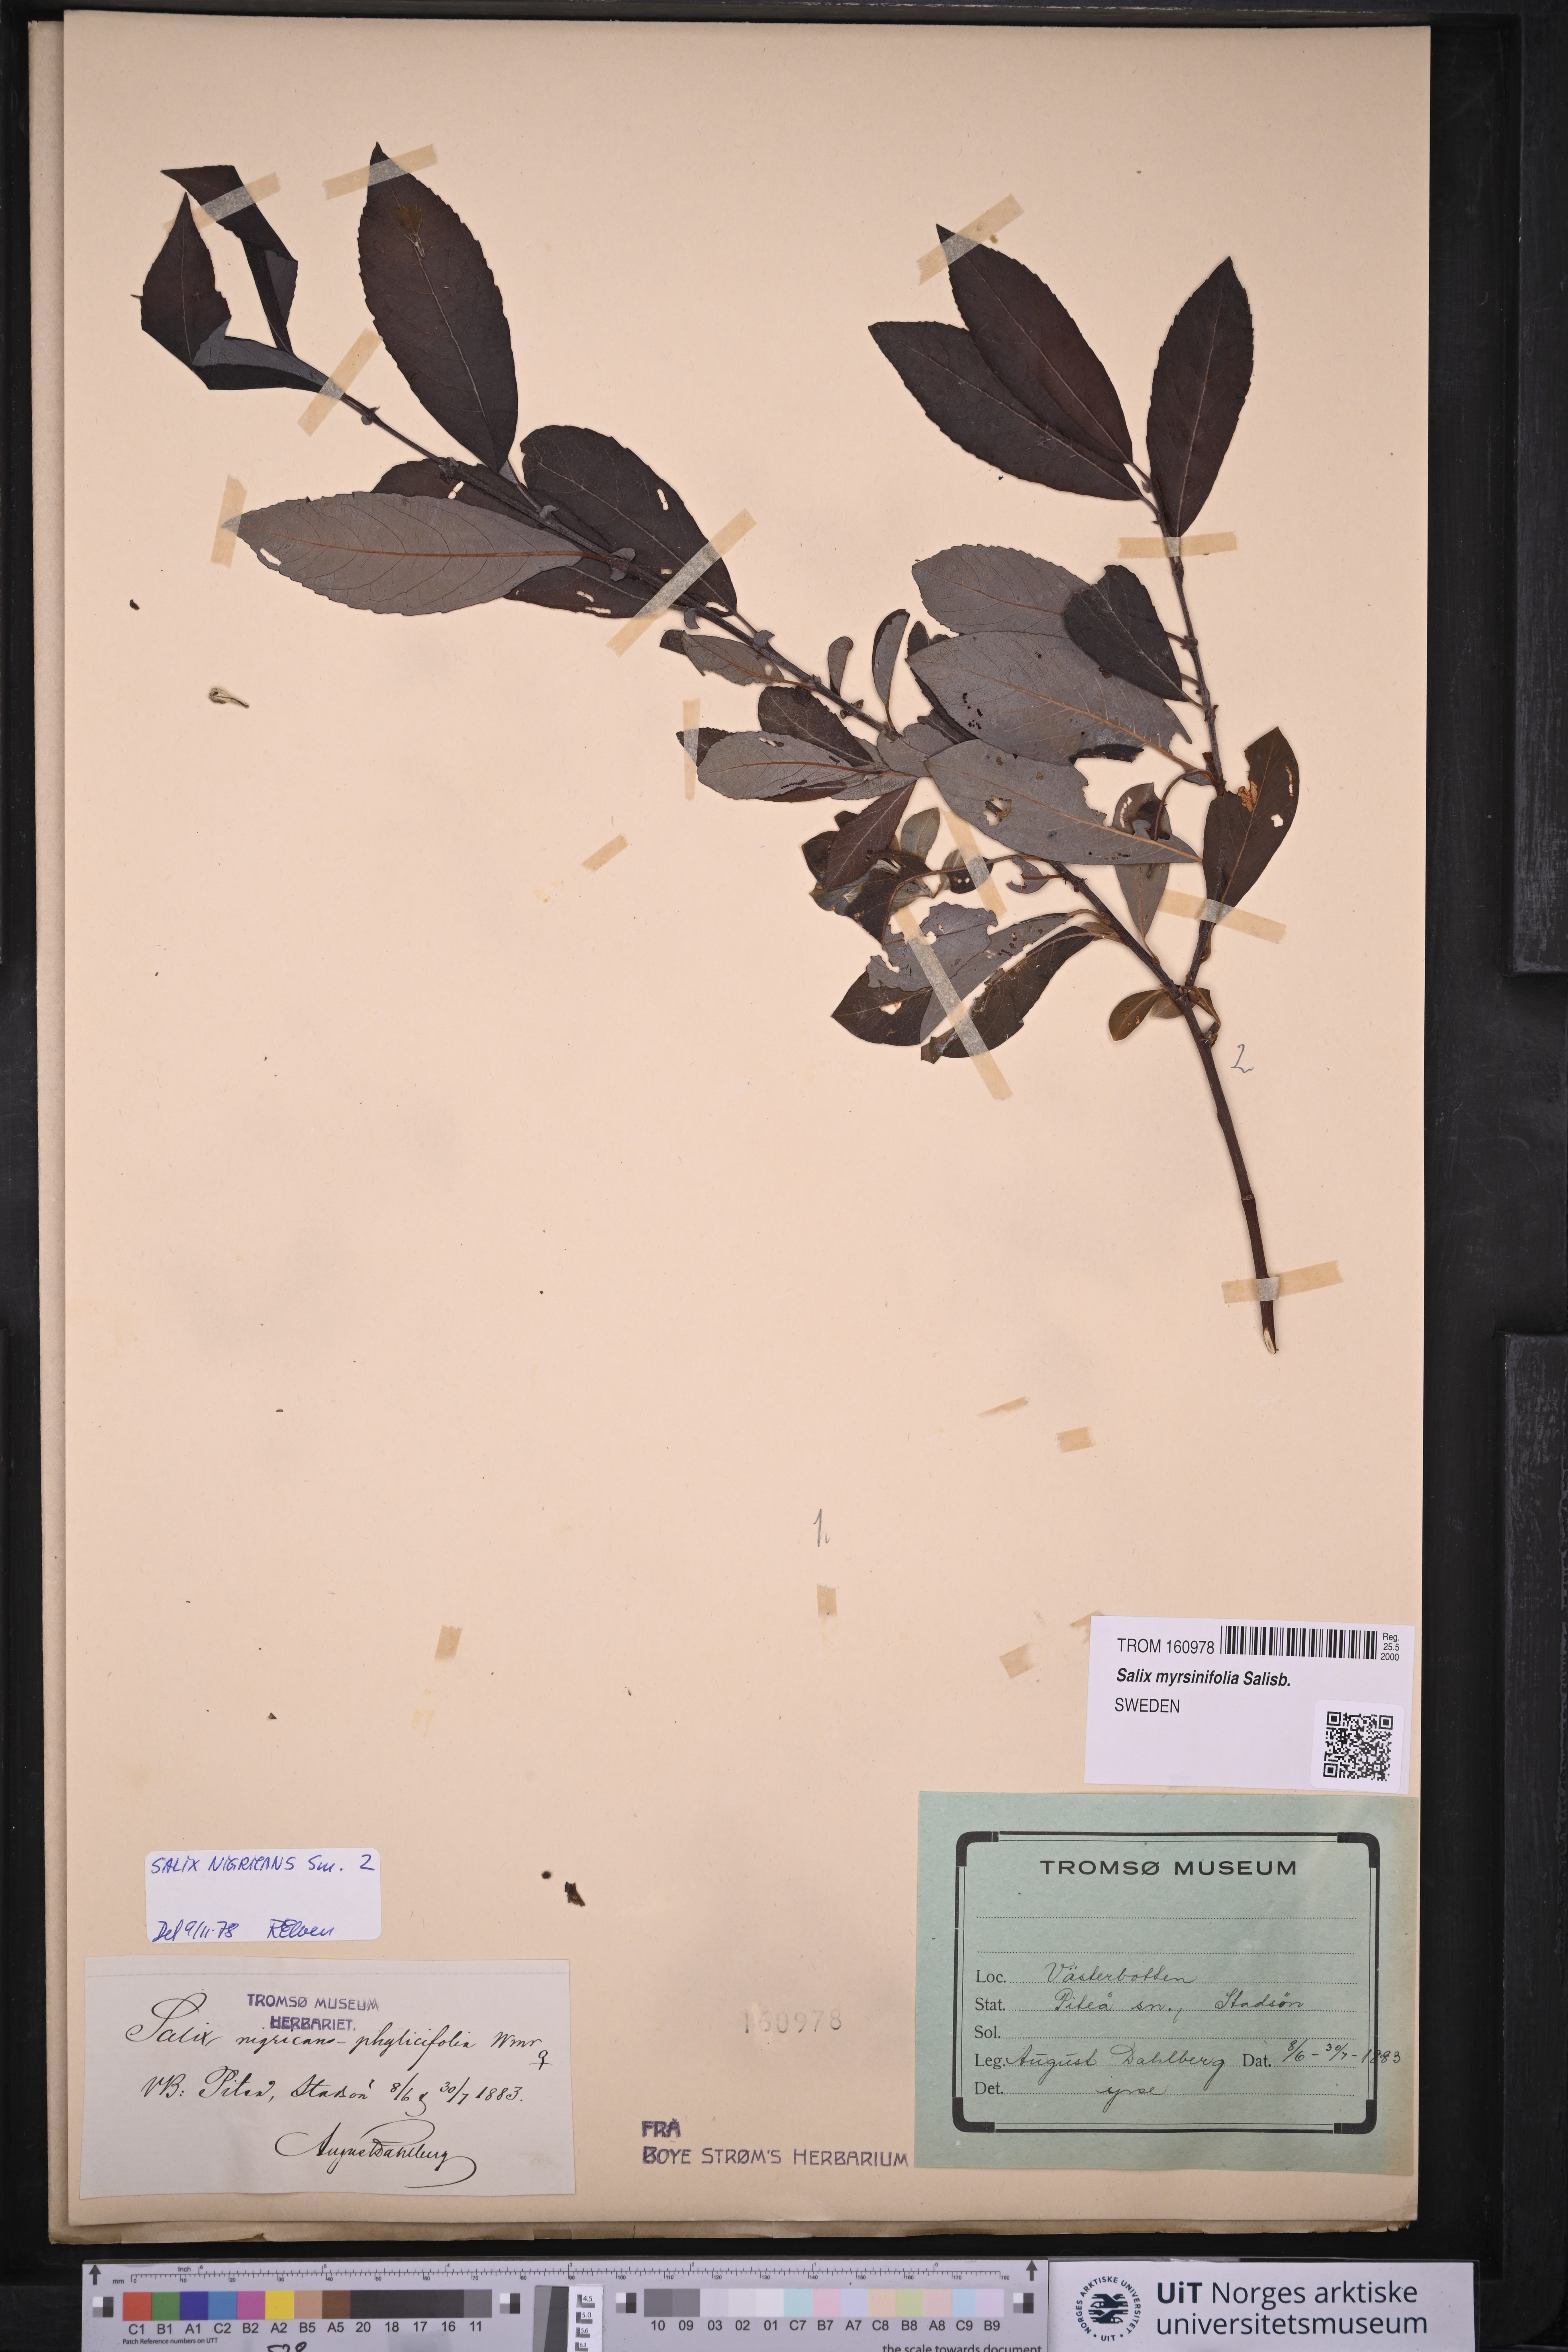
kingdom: Plantae
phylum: Tracheophyta
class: Magnoliopsida
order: Malpighiales
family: Salicaceae
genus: Salix
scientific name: Salix myrsinifolia
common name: Dark-leaved willow
